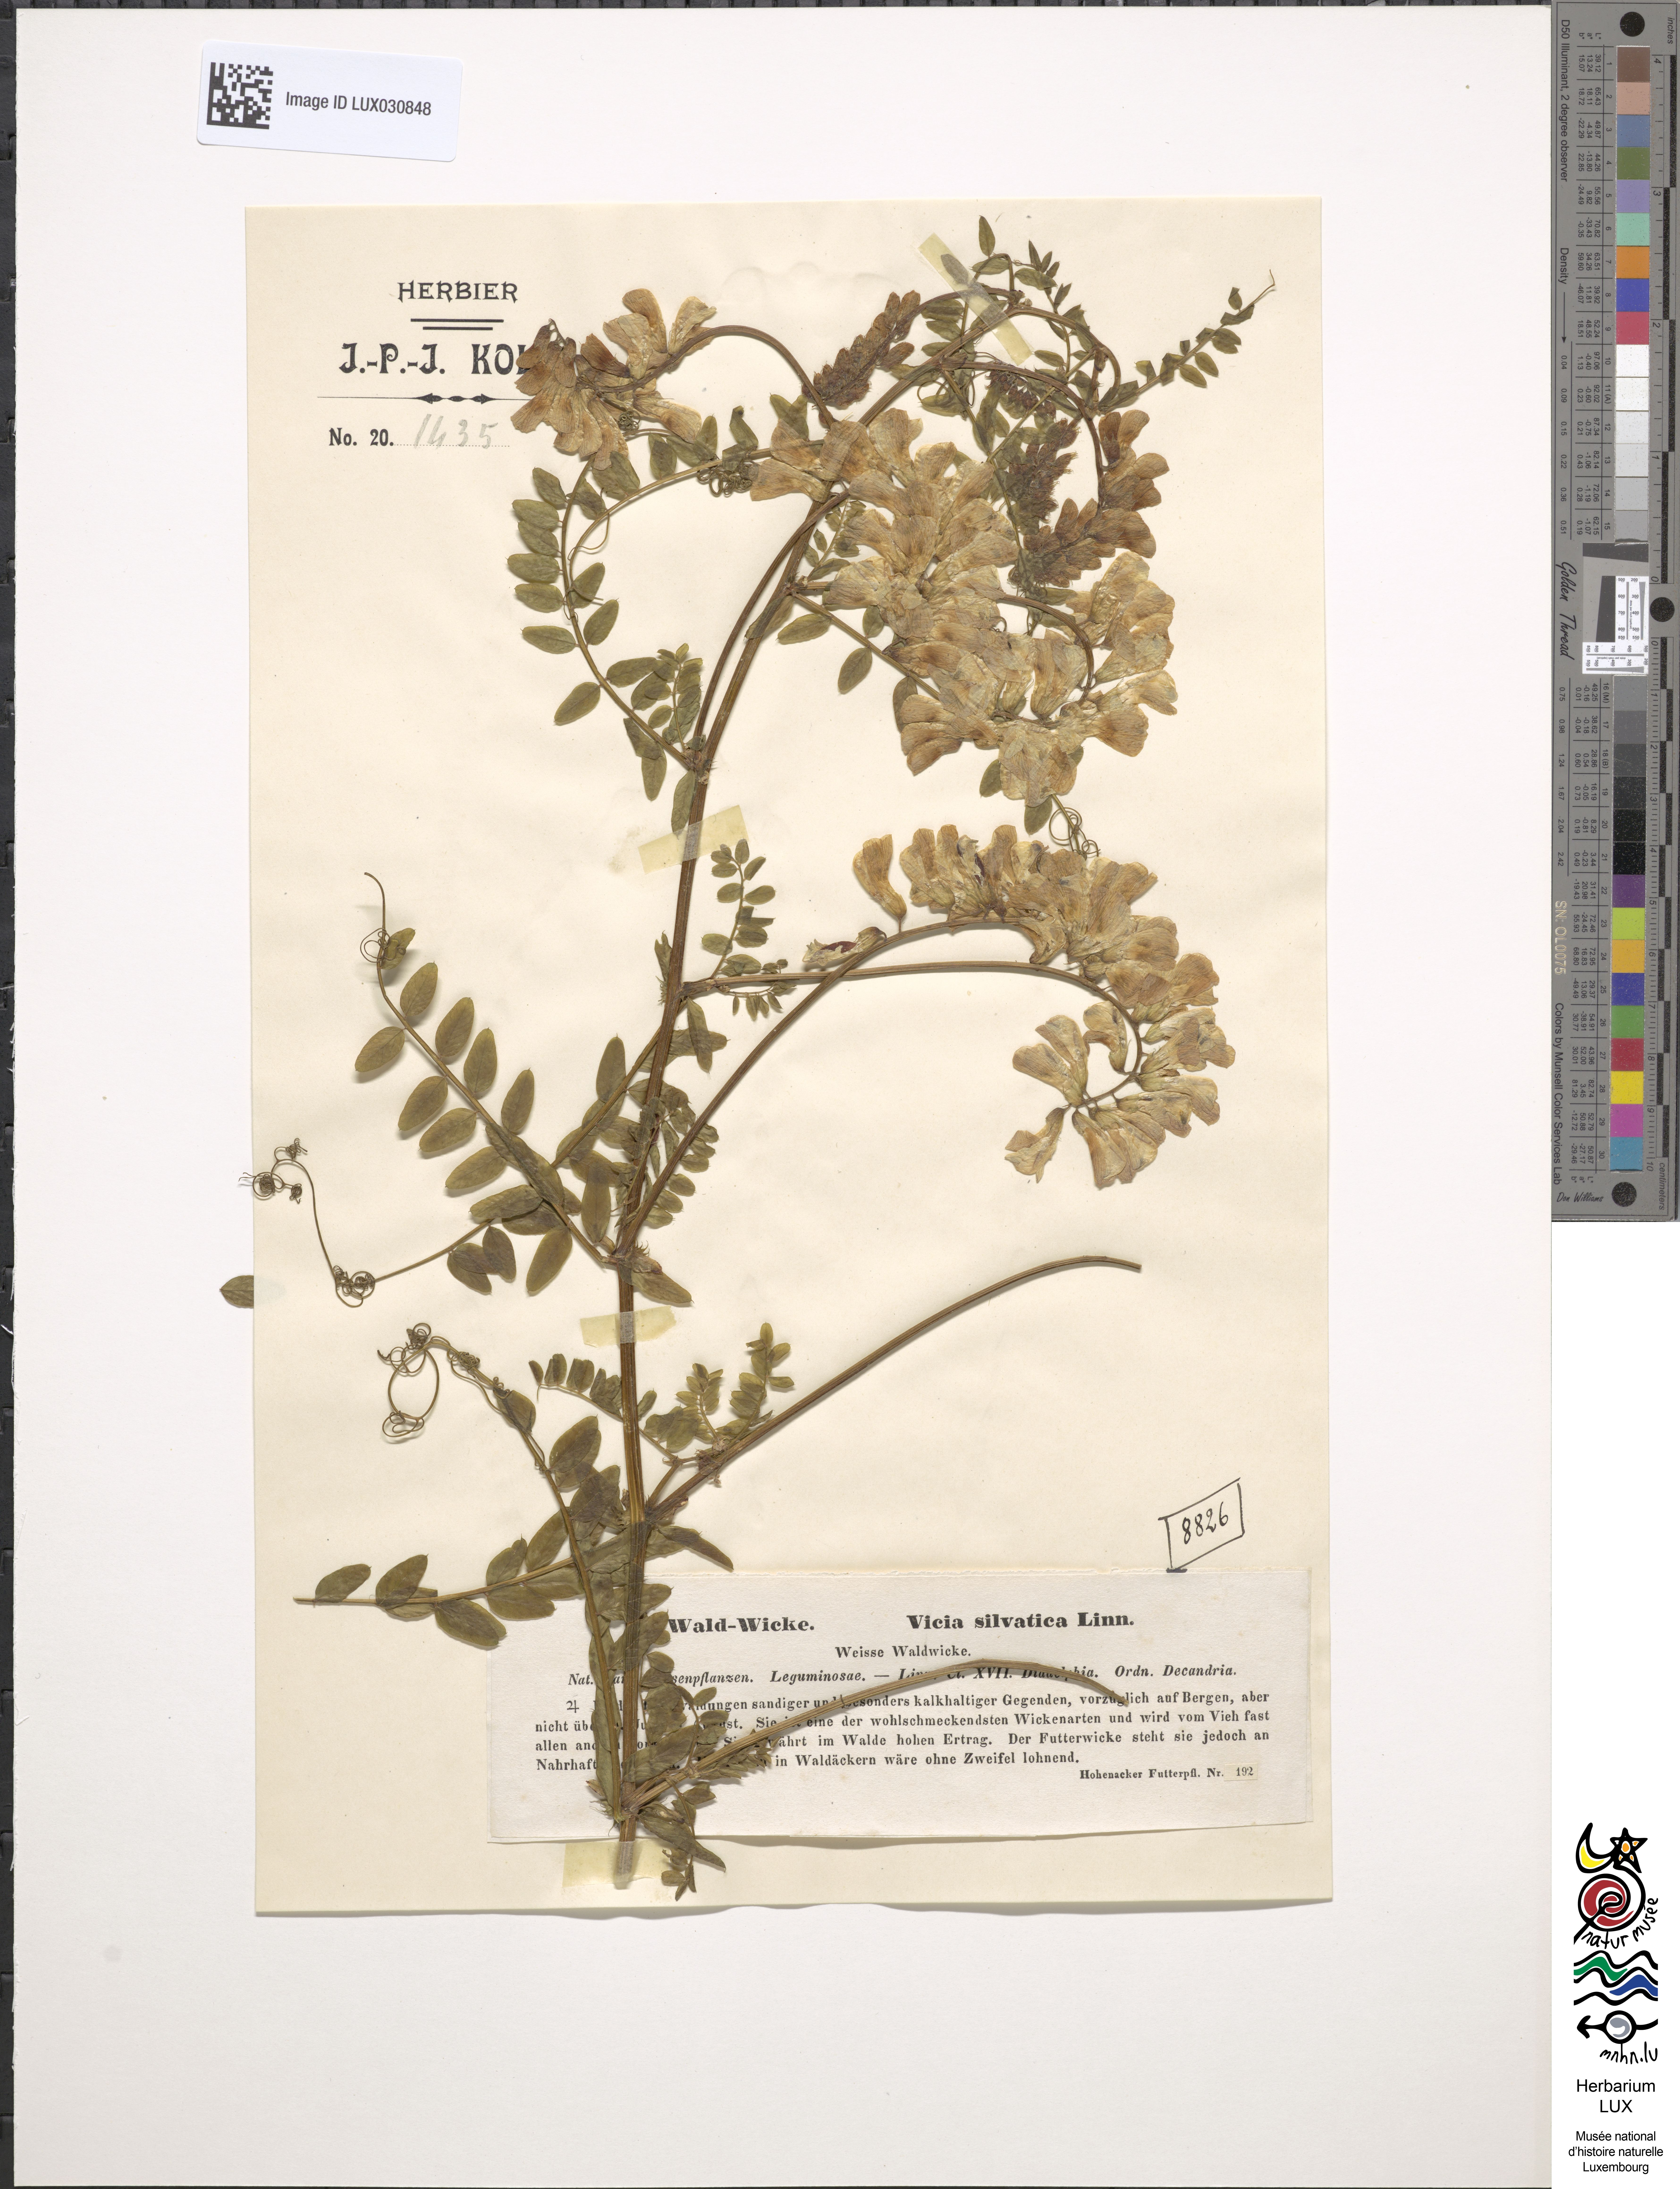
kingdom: Plantae
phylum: Tracheophyta
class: Magnoliopsida
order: Fabales
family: Fabaceae
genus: Vicia
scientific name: Vicia sylvatica
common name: Wood vetch
